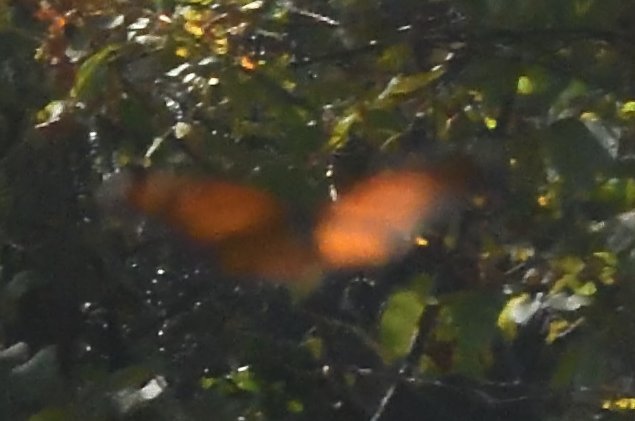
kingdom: Animalia
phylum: Arthropoda
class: Insecta
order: Lepidoptera
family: Nymphalidae
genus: Danaus
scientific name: Danaus plexippus
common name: Monarch
